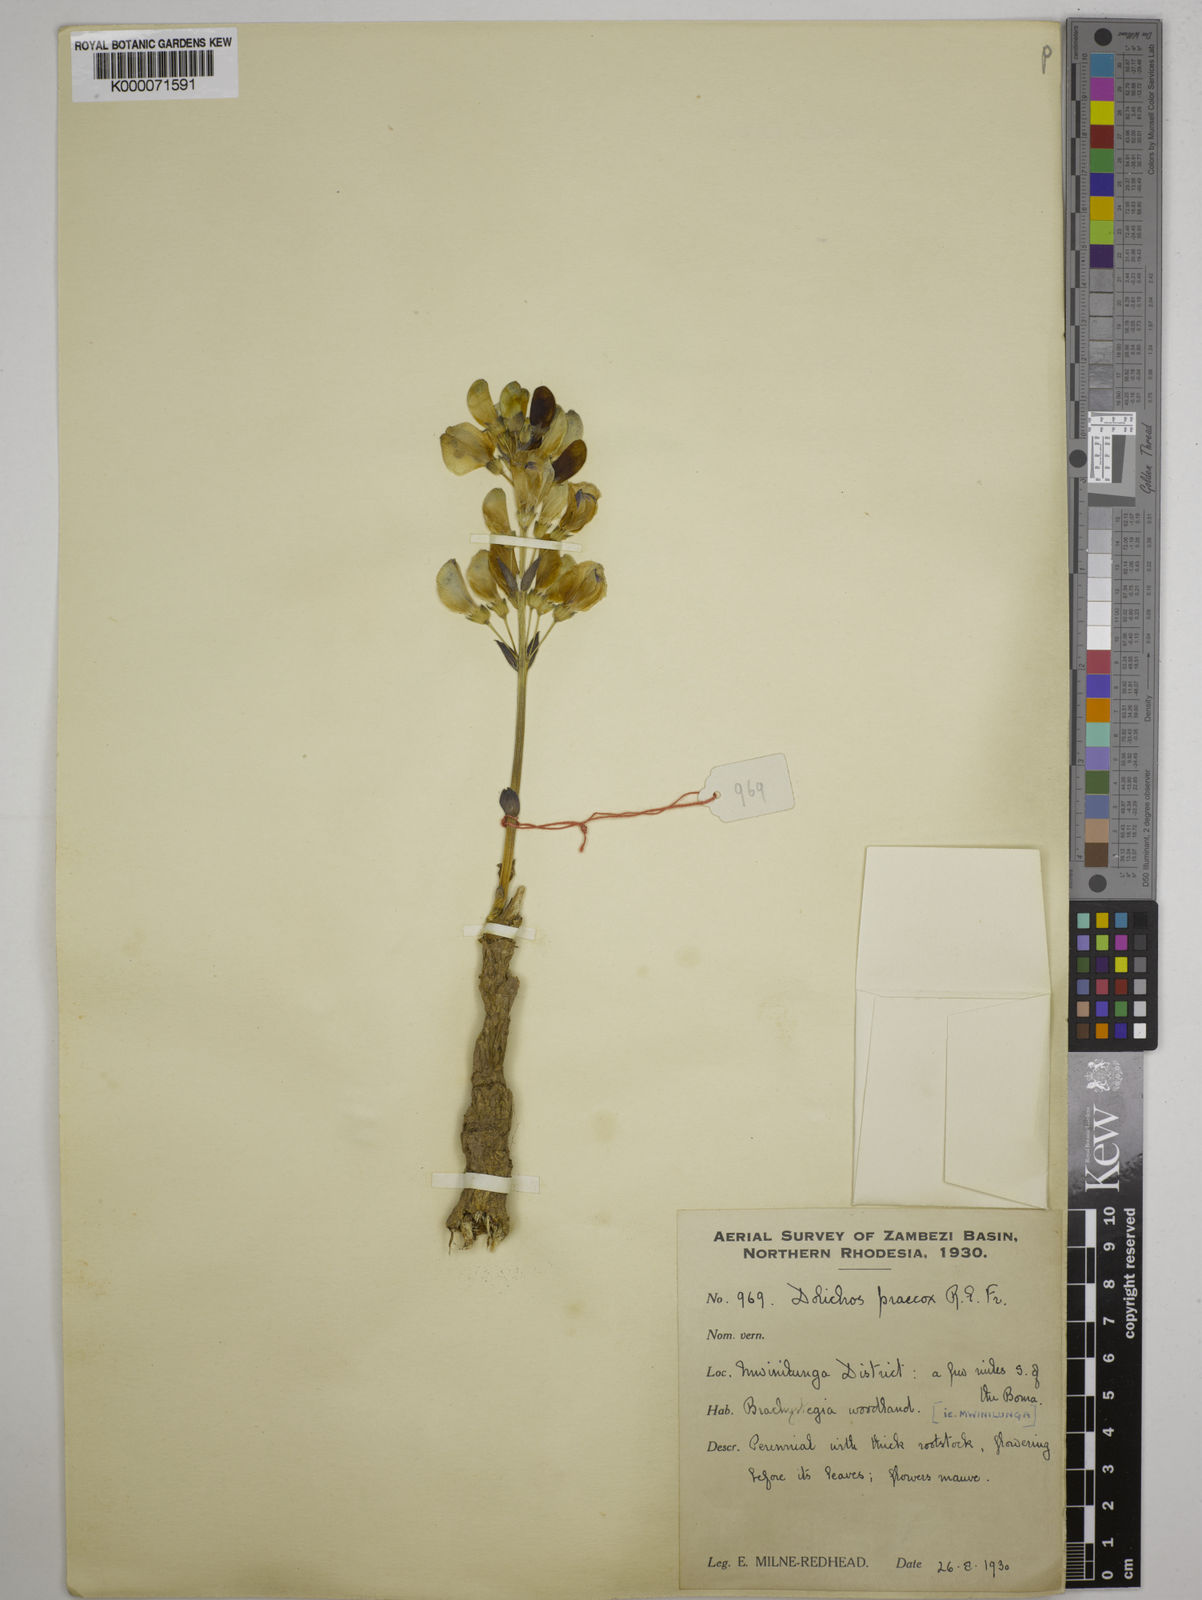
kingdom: Plantae
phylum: Tracheophyta
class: Magnoliopsida
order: Fabales
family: Fabaceae
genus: Dolichos
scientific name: Dolichos gululu
